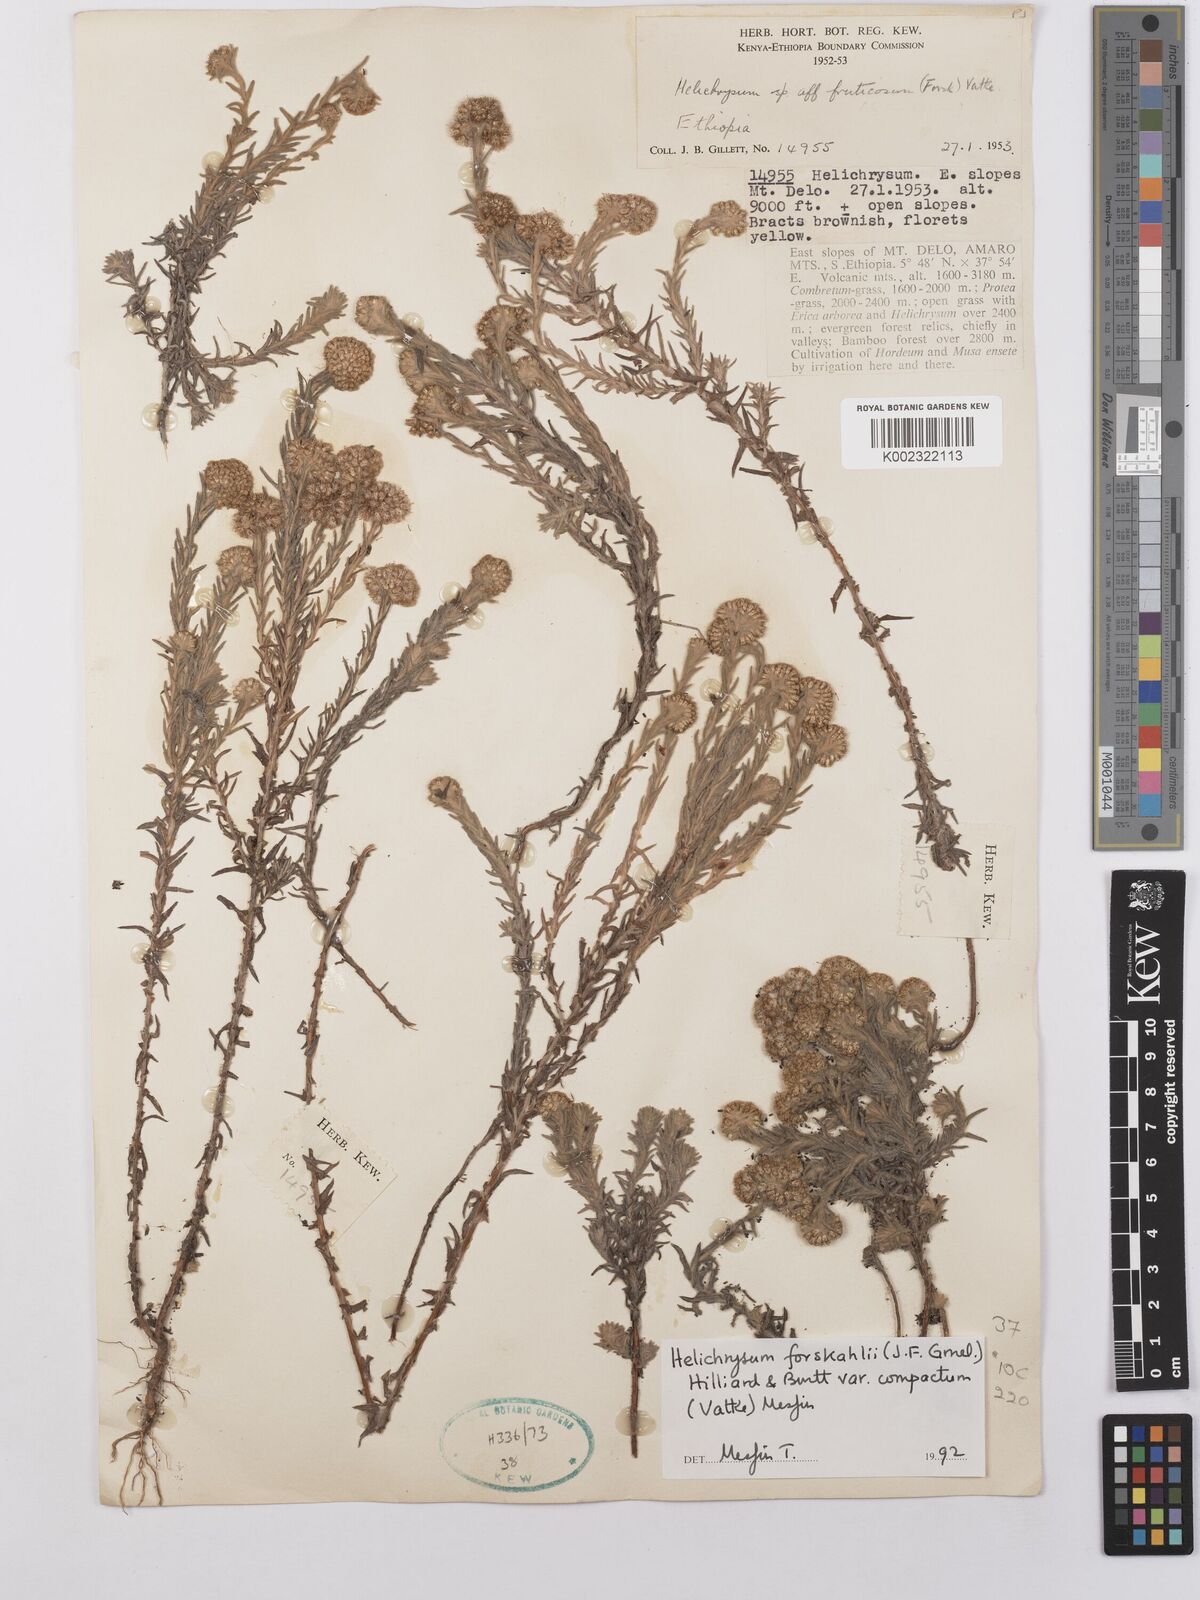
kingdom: Plantae
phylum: Tracheophyta
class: Magnoliopsida
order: Asterales
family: Asteraceae
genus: Helichrysum
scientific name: Helichrysum forskahlii
